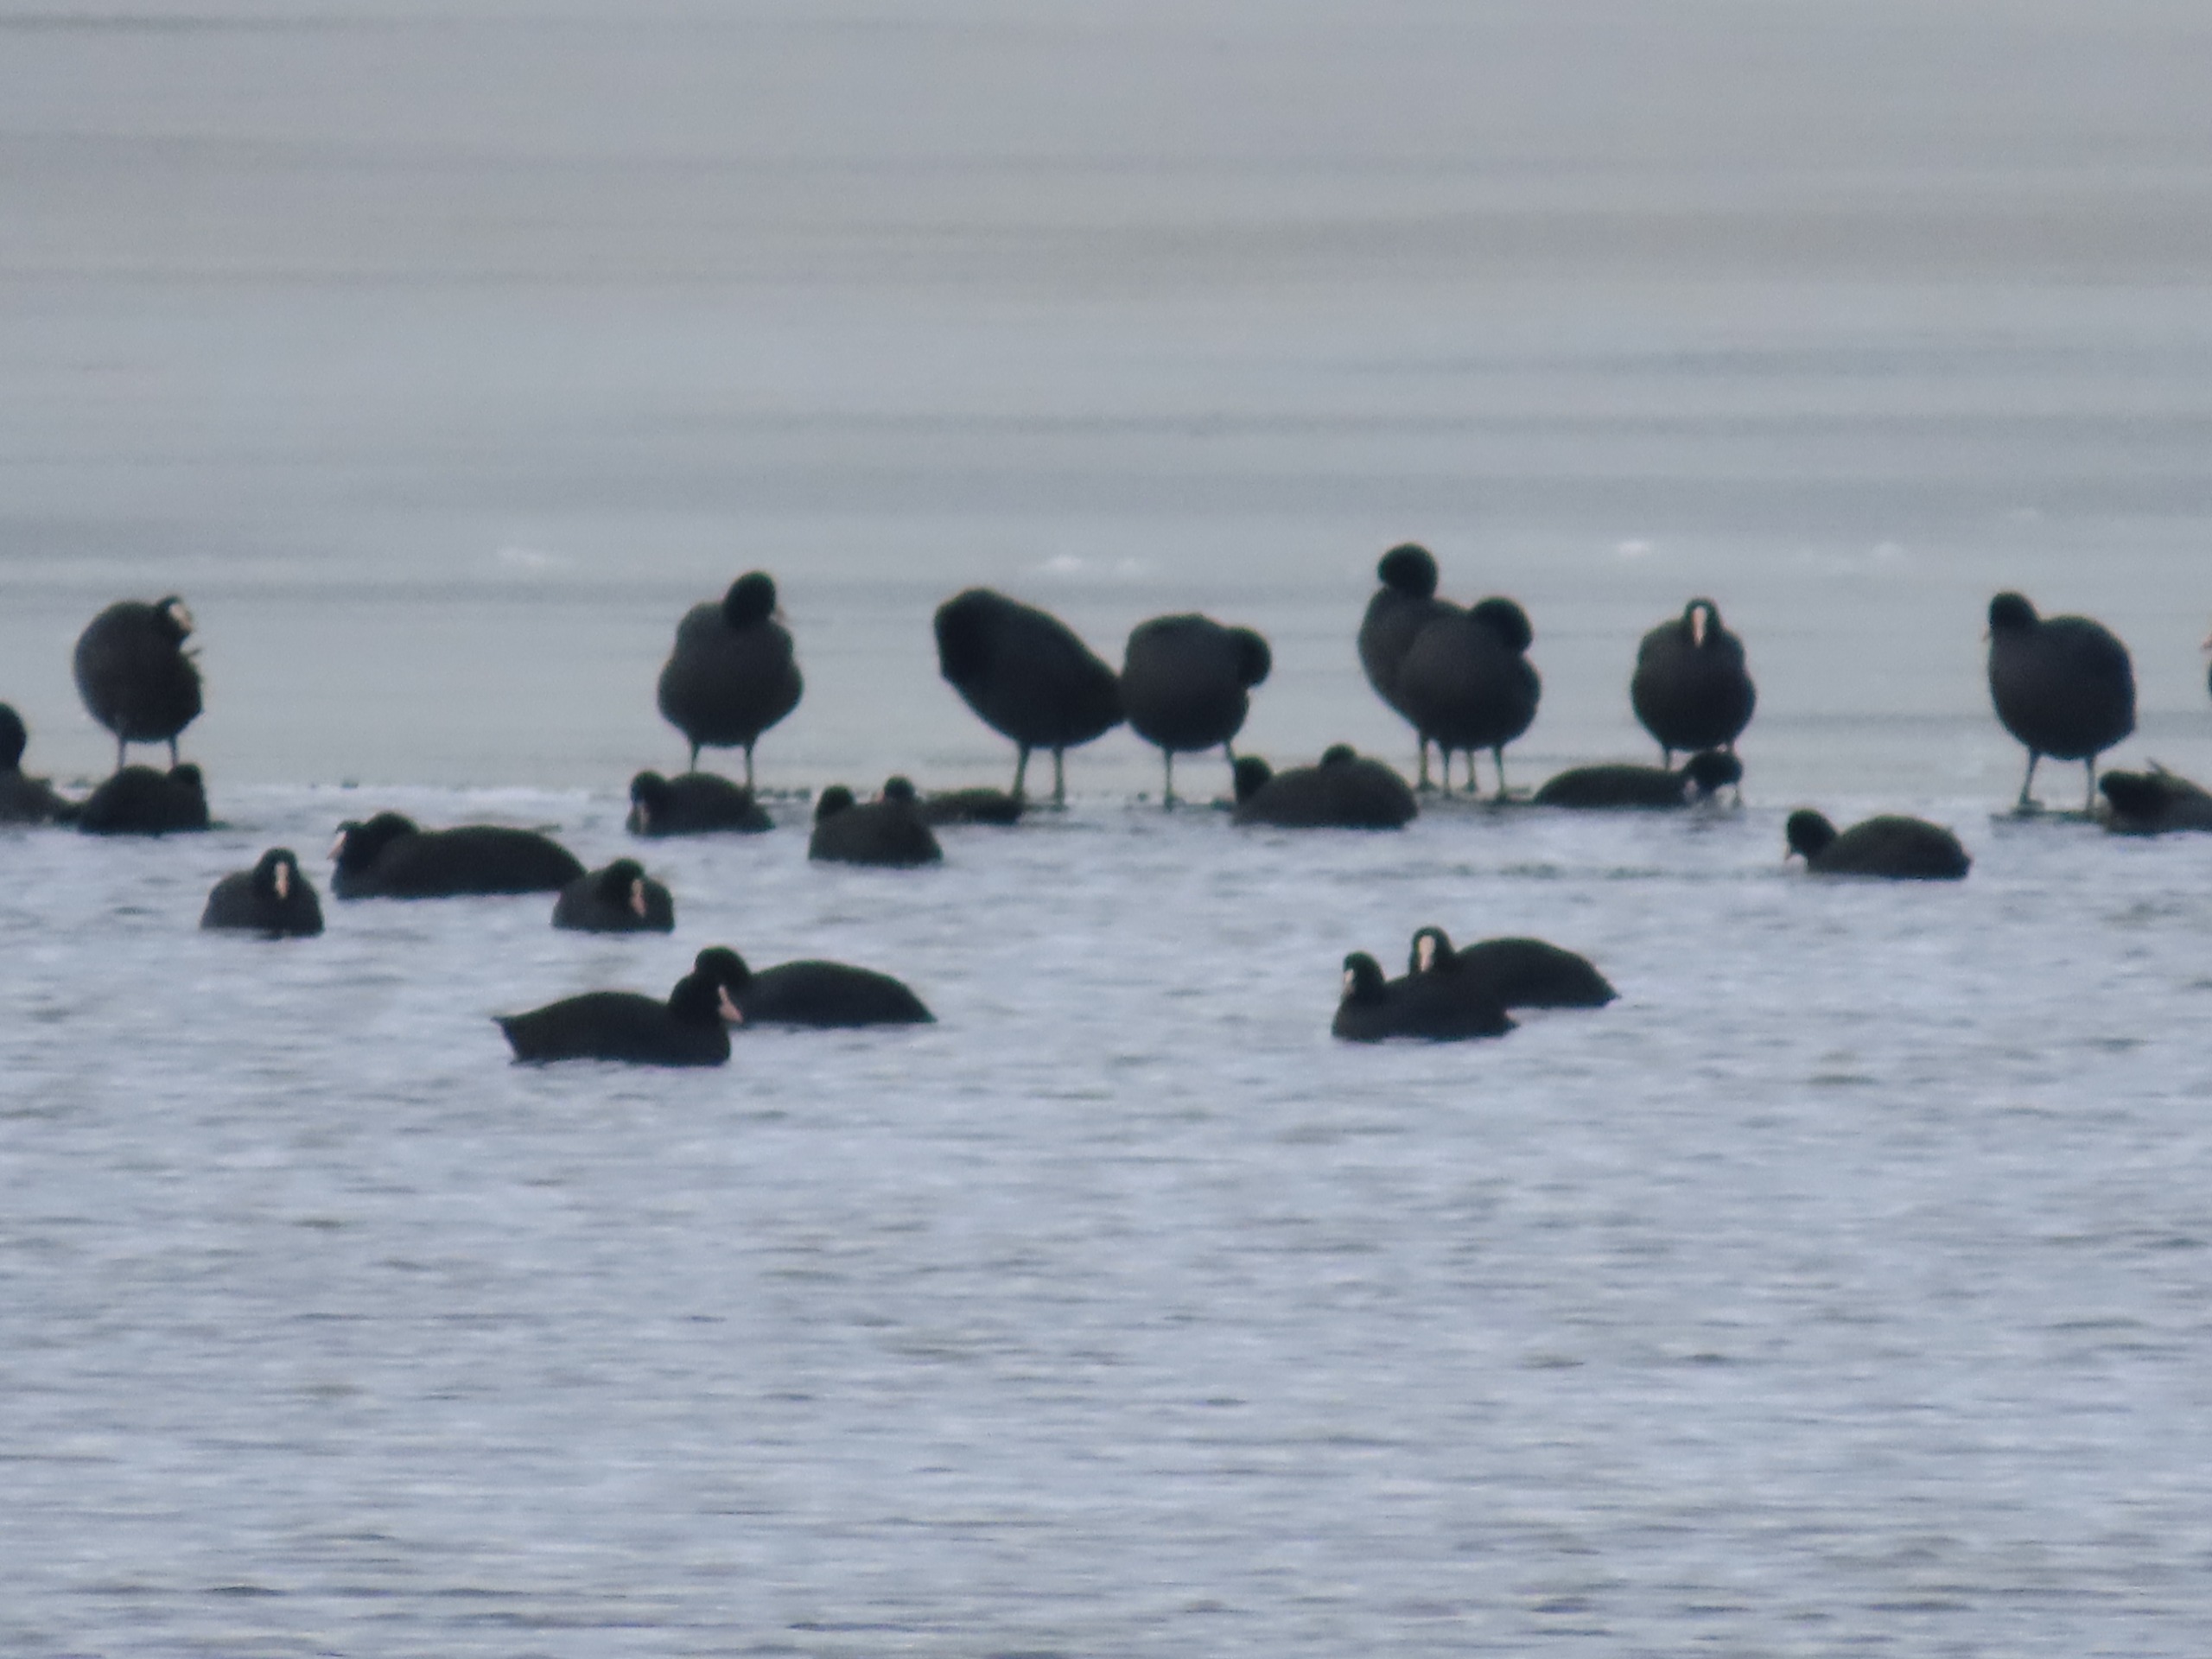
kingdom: Animalia
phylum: Chordata
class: Aves
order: Gruiformes
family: Rallidae
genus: Fulica
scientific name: Fulica atra
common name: Blishøne
